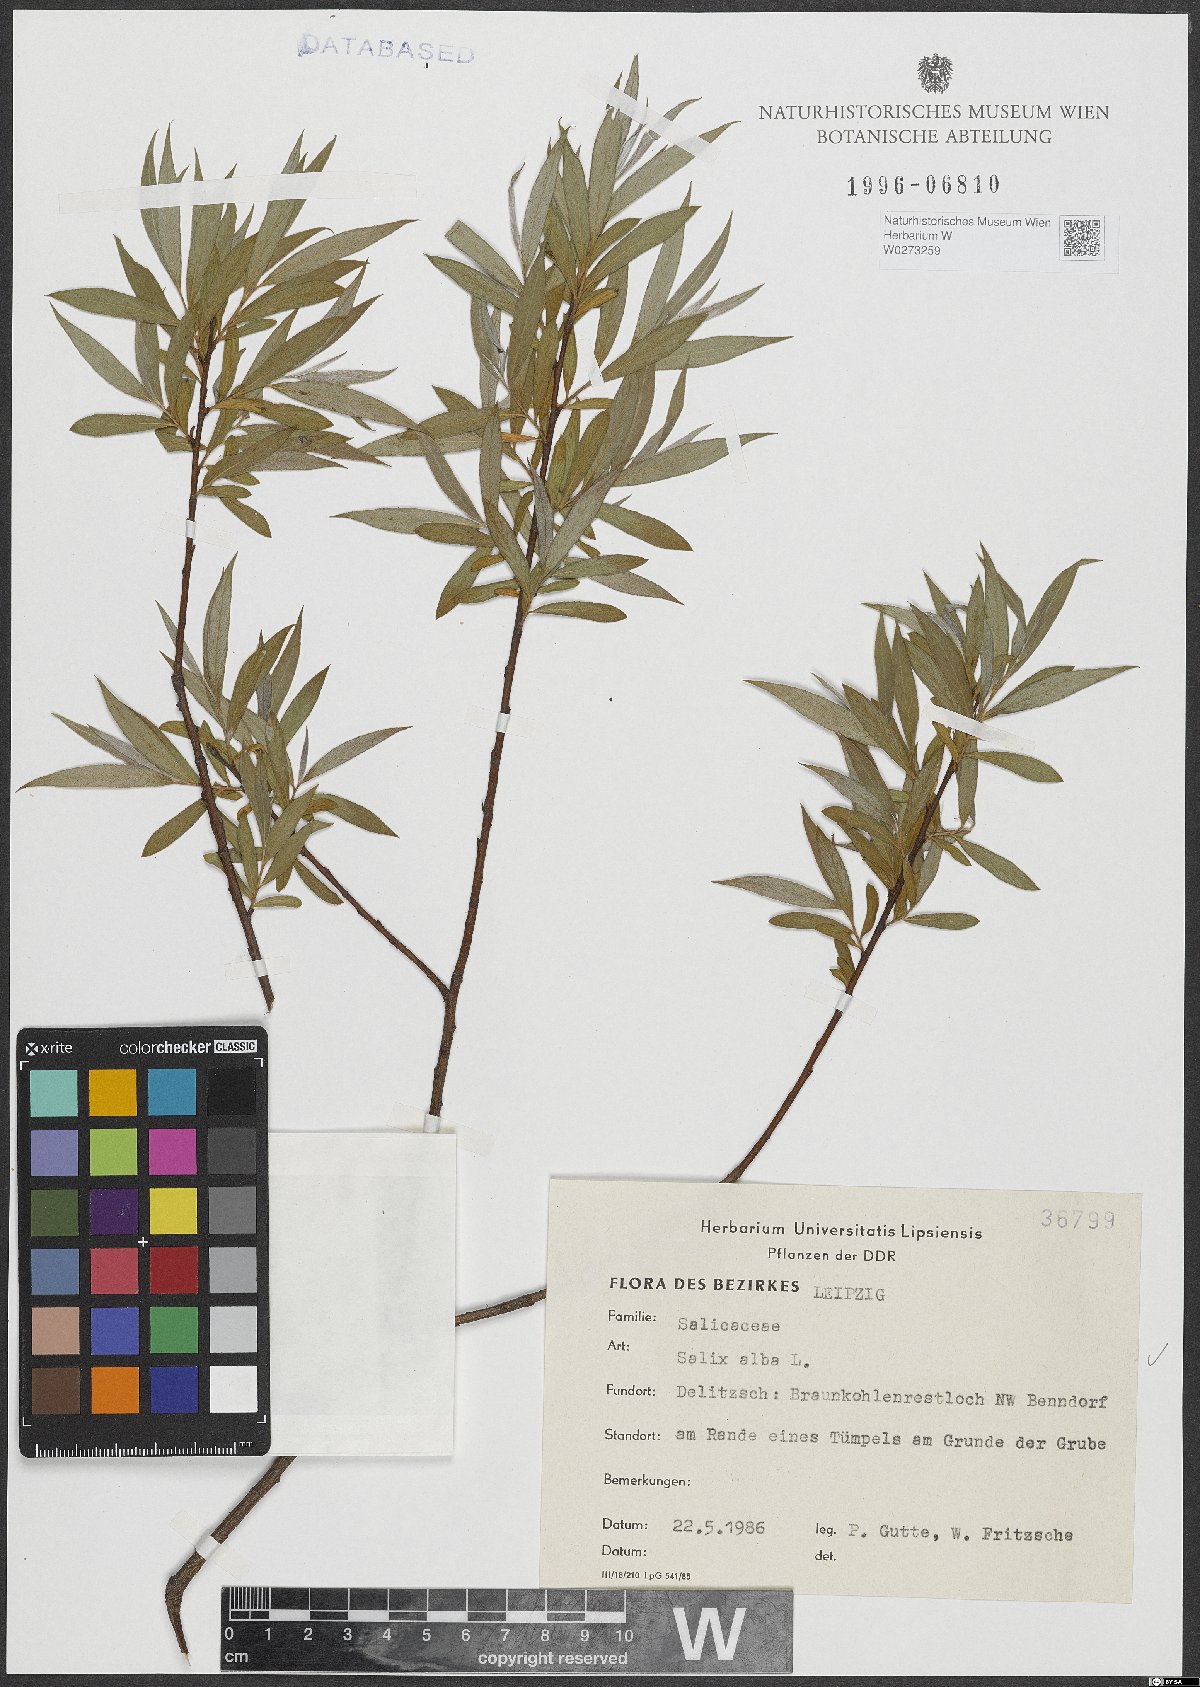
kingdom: Plantae
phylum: Tracheophyta
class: Magnoliopsida
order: Malpighiales
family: Salicaceae
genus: Salix
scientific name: Salix alba
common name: White willow
